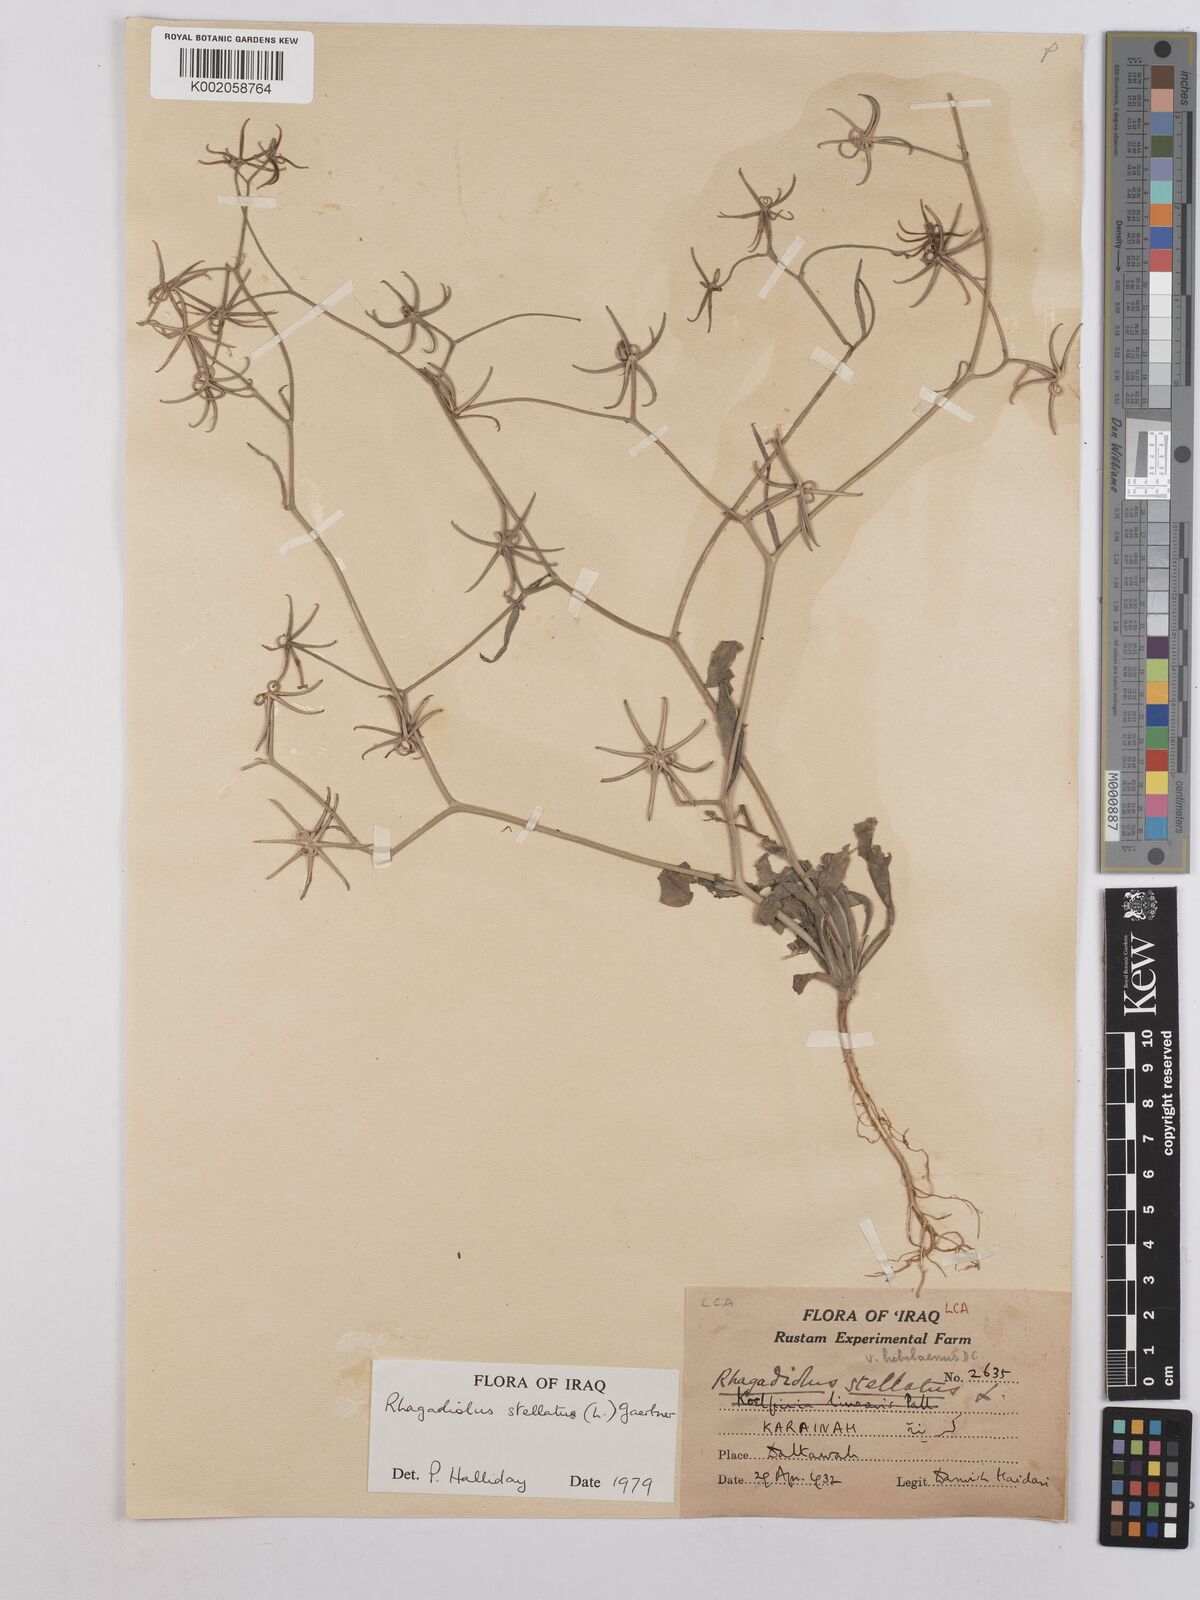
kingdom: Plantae
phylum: Tracheophyta
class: Magnoliopsida
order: Asterales
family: Asteraceae
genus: Rhagadiolus
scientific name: Rhagadiolus stellatus
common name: Star hawkbit
